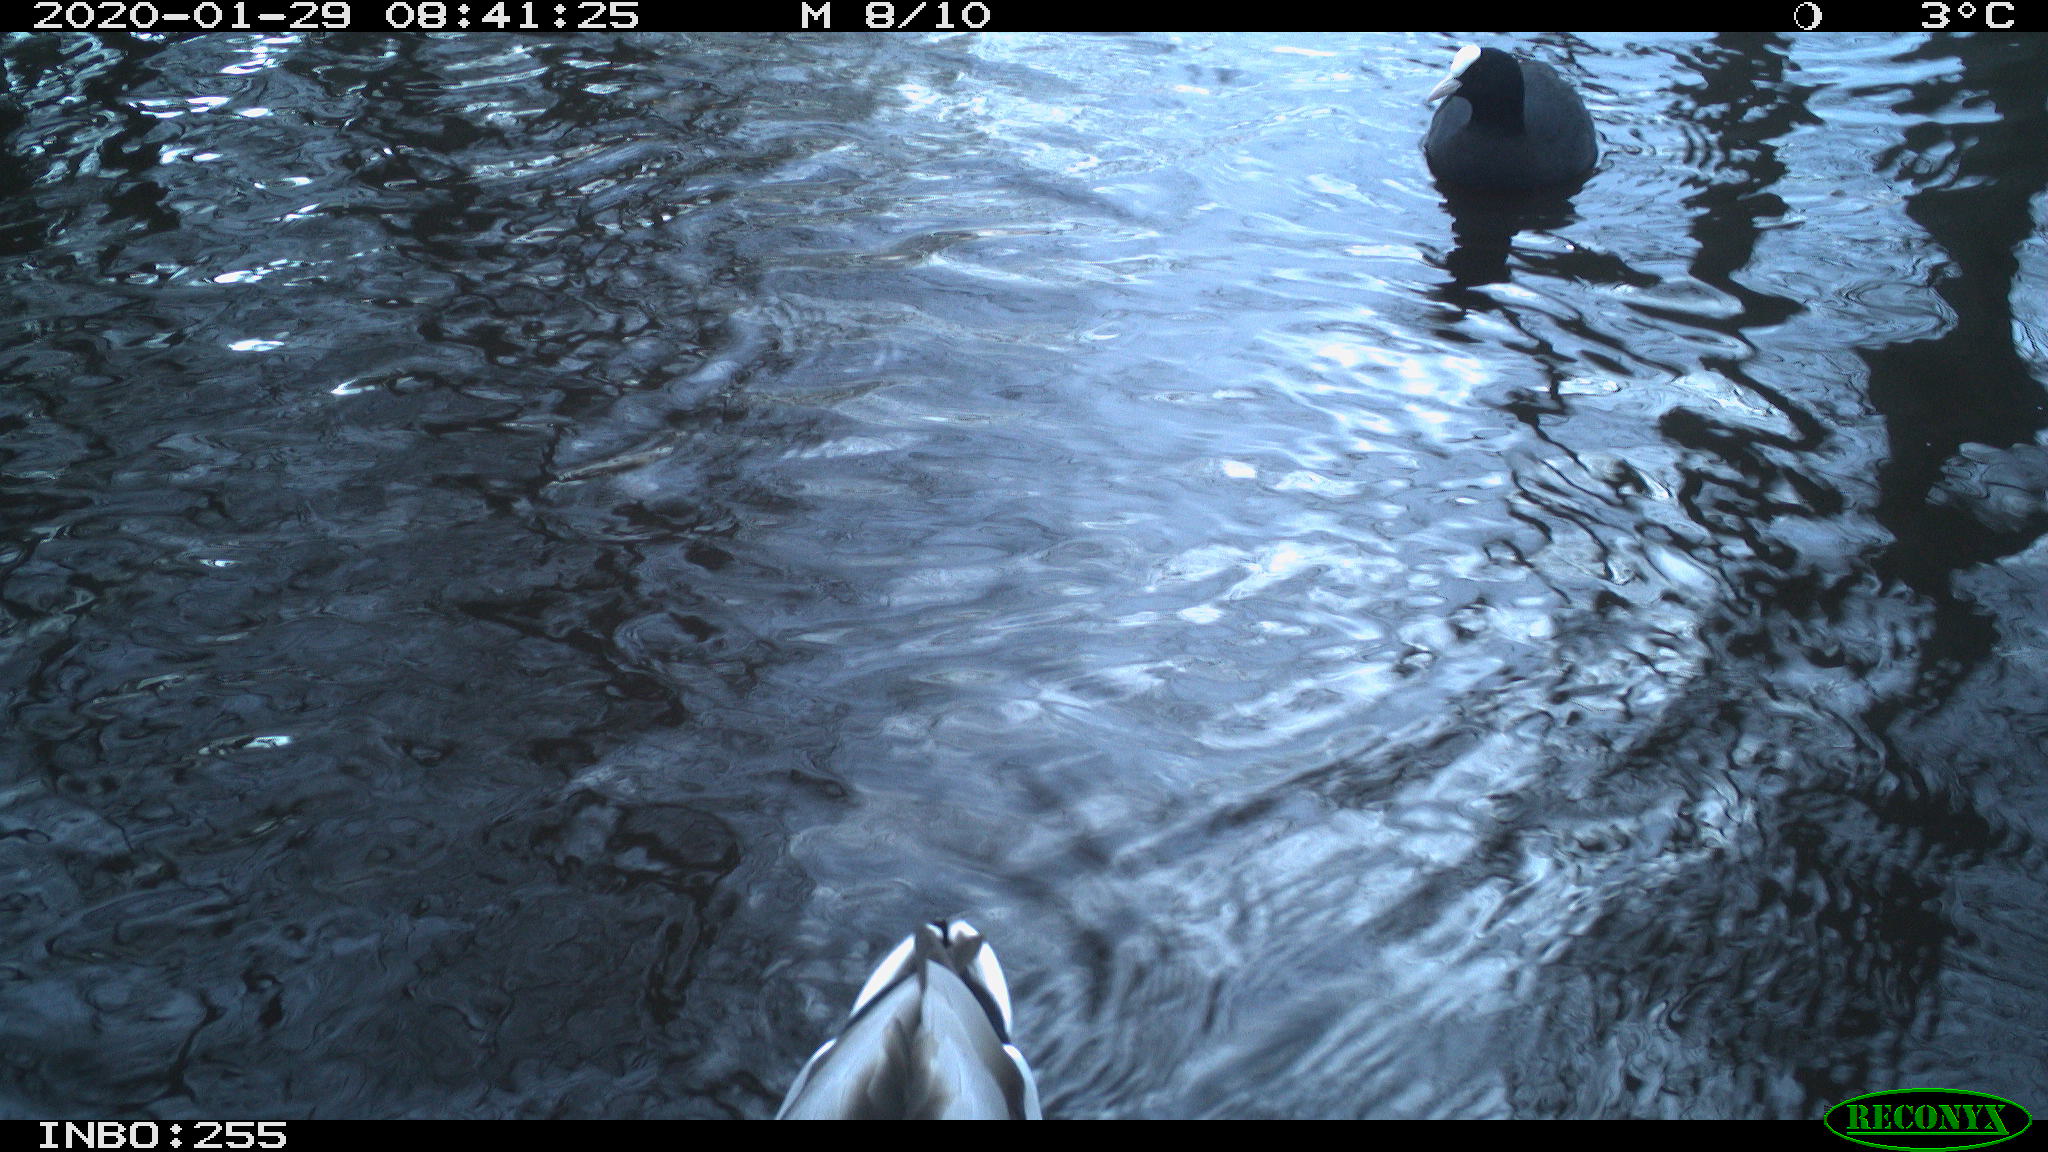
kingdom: Animalia
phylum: Chordata
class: Aves
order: Gruiformes
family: Rallidae
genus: Fulica
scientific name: Fulica atra
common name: Eurasian coot
